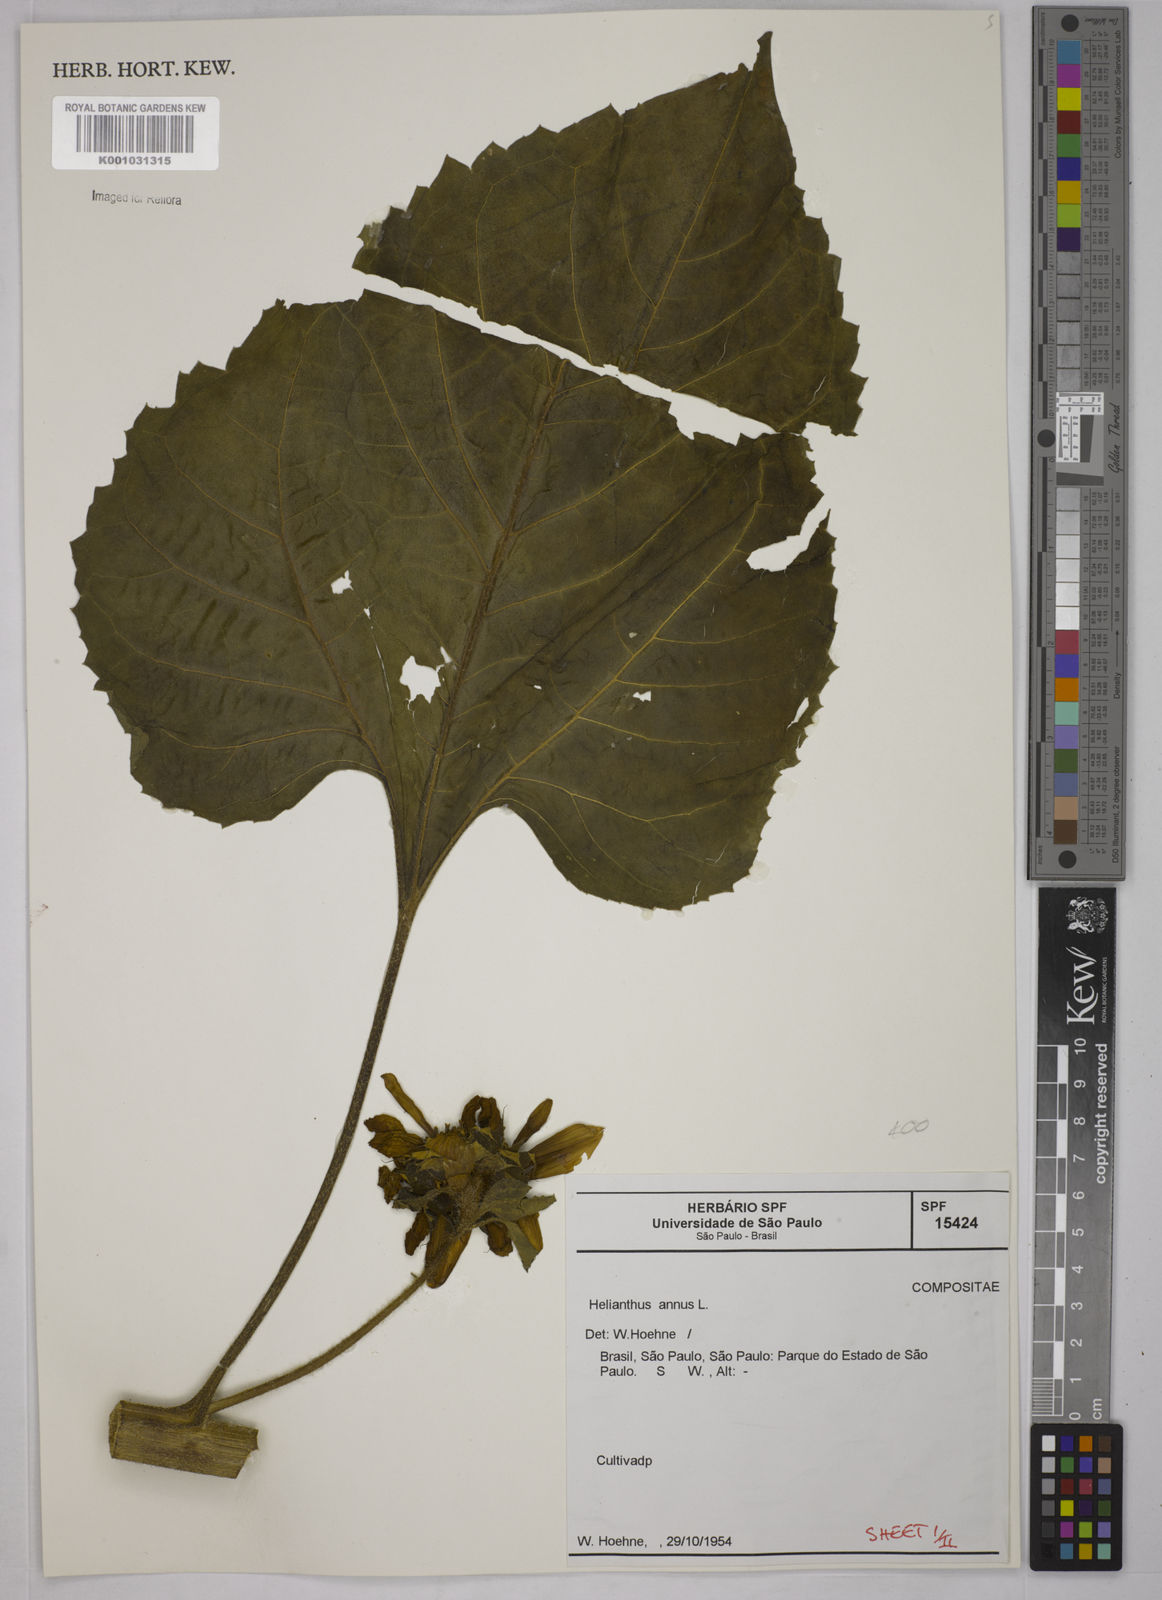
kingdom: Plantae
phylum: Tracheophyta
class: Magnoliopsida
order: Asterales
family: Asteraceae
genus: Helianthus
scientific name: Helianthus annuus
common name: Sunflower
